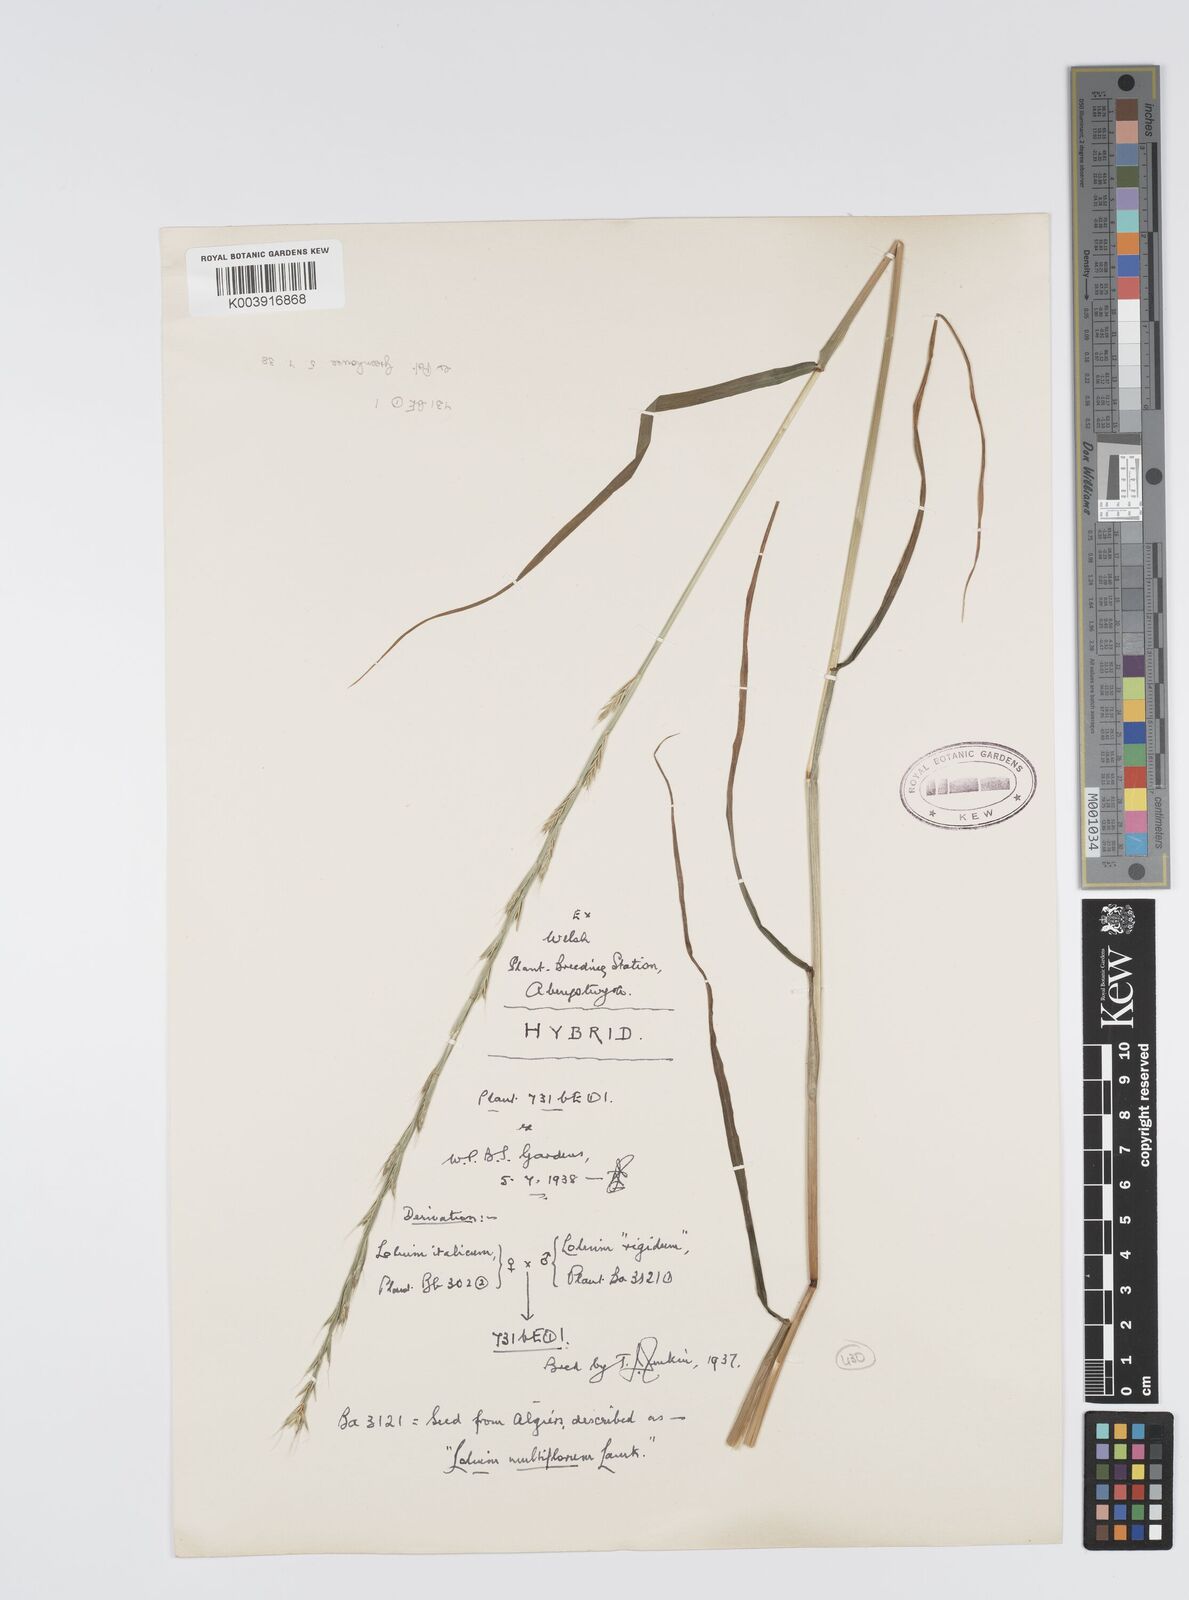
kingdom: Plantae
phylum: Tracheophyta
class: Liliopsida
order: Poales
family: Poaceae
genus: Lolium
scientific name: Lolium multiflorum
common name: Annual ryegrass
